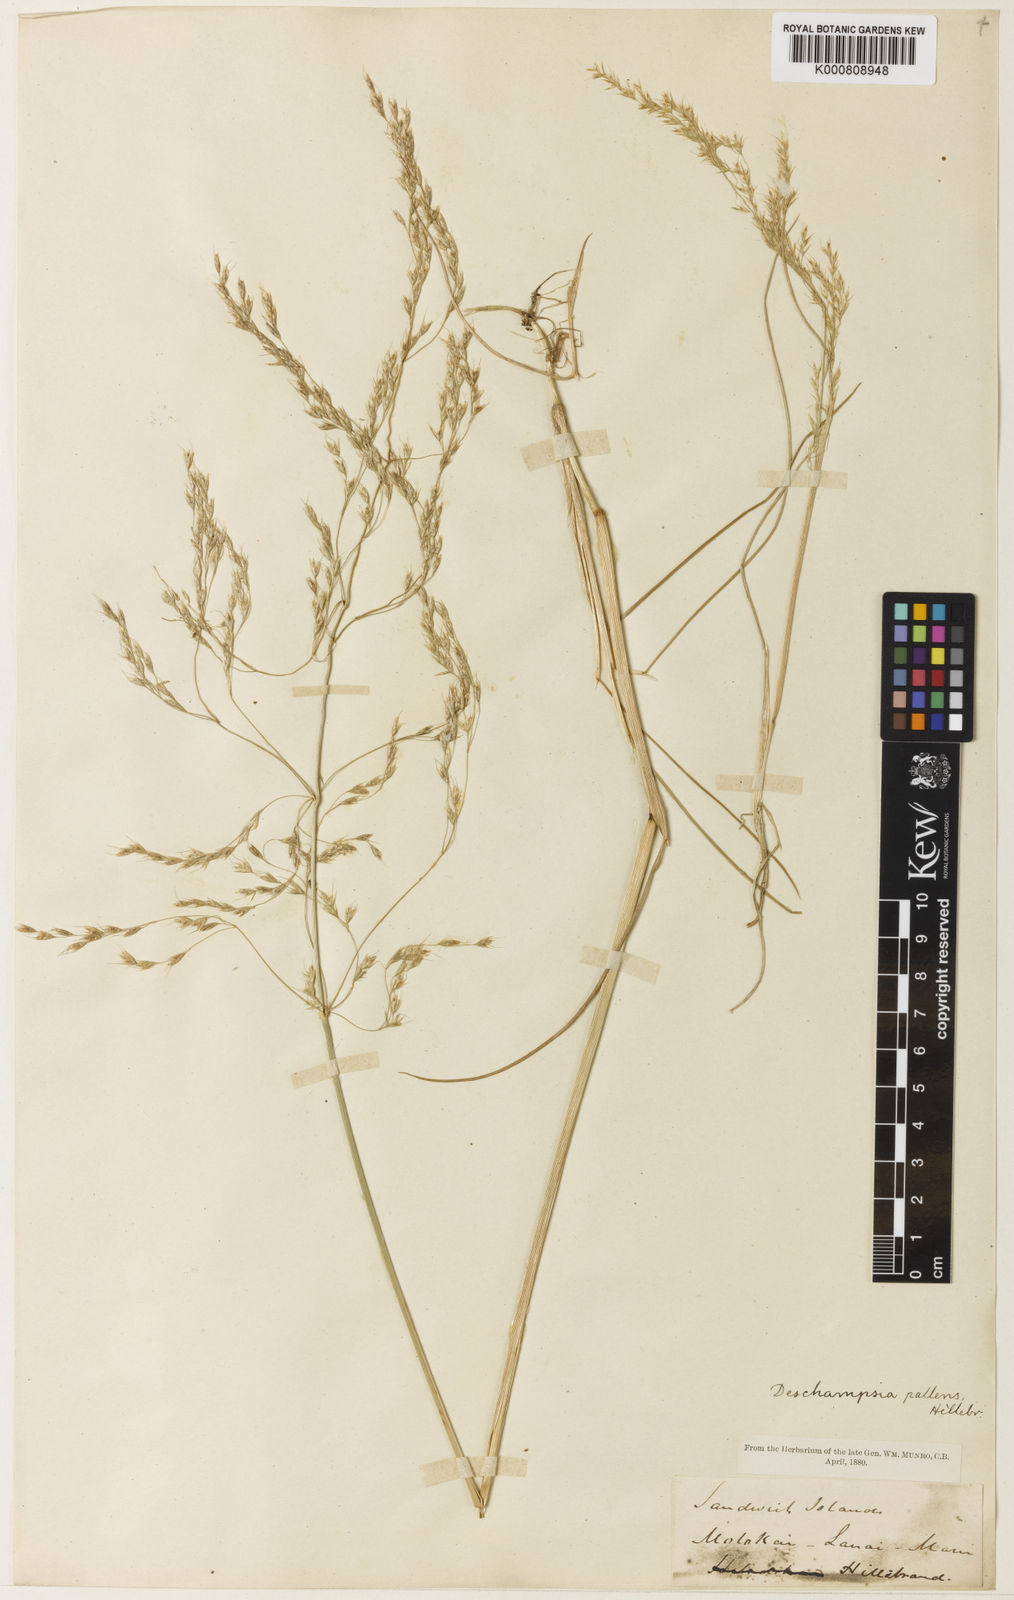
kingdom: Plantae
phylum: Tracheophyta
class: Liliopsida
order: Poales
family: Poaceae
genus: Deschampsia
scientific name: Deschampsia nubigena
